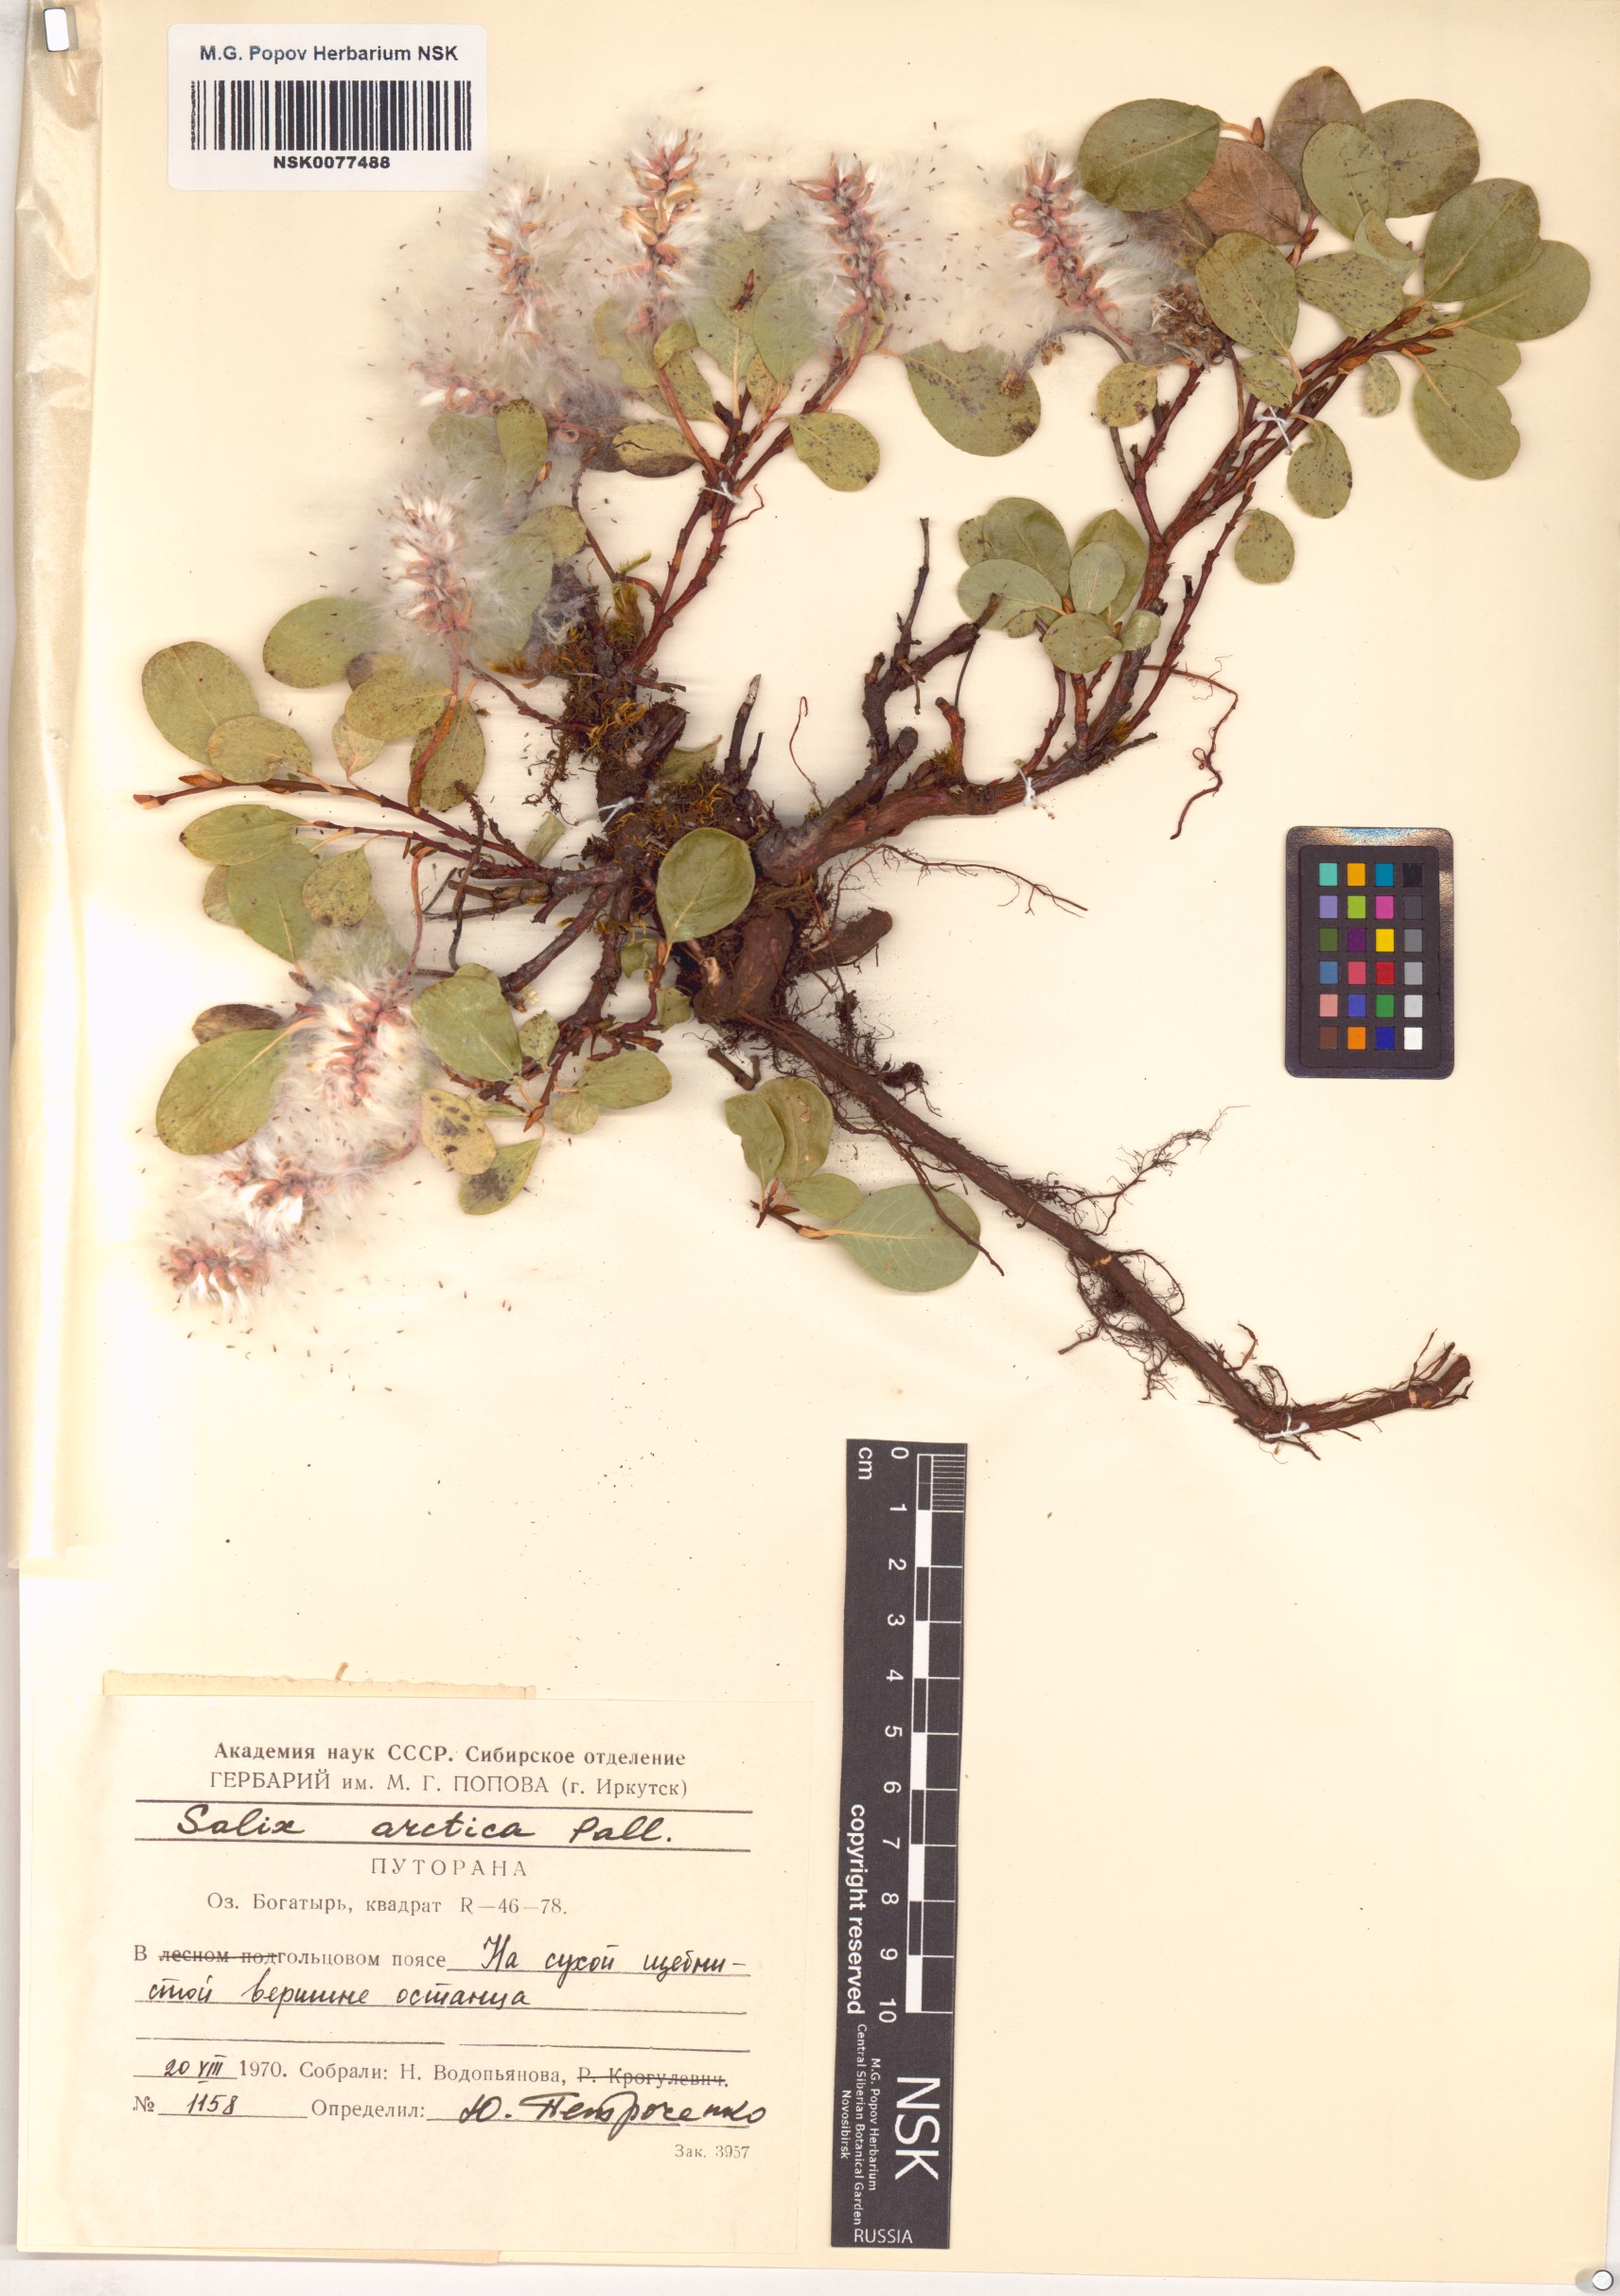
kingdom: Plantae
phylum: Tracheophyta
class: Magnoliopsida
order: Malpighiales
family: Salicaceae
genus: Salix
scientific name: Salix arctica
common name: Arctic willow
